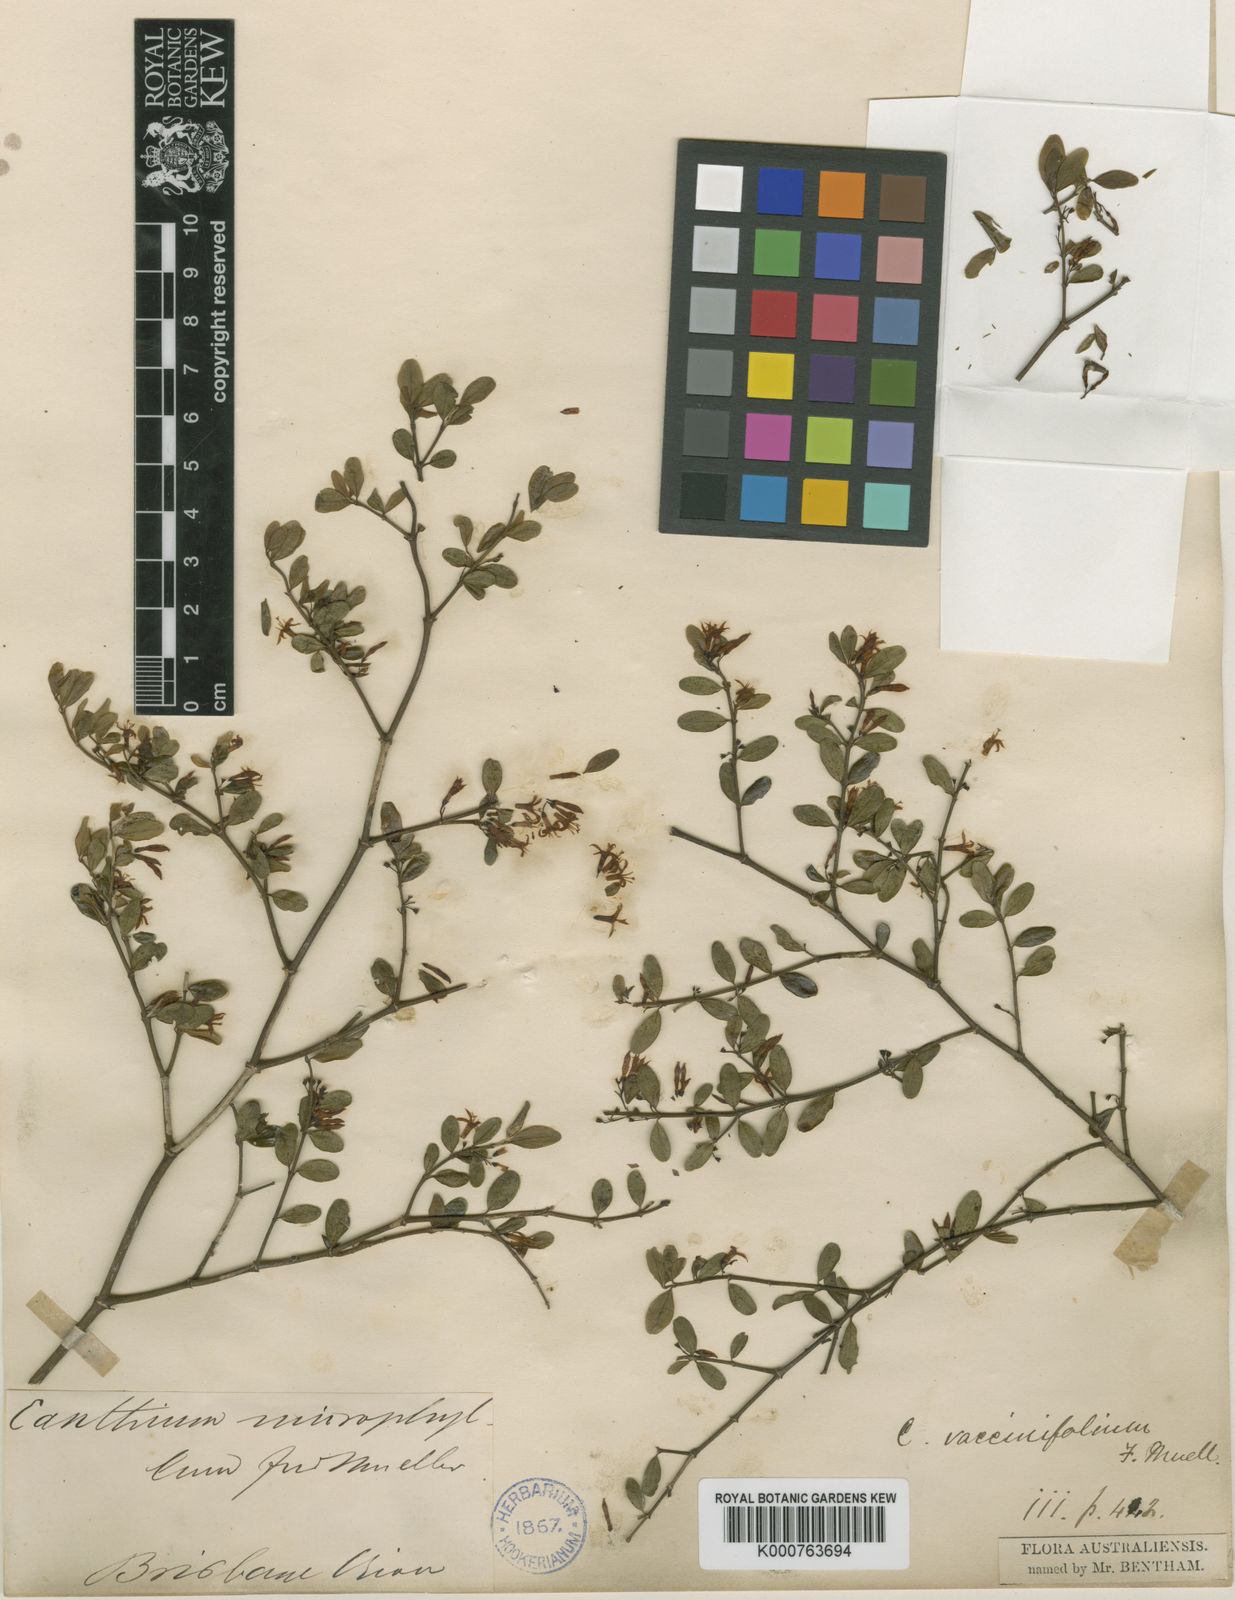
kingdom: Plantae
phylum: Tracheophyta
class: Magnoliopsida
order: Gentianales
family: Rubiaceae
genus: Everistia
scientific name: Everistia vacciniifolia
